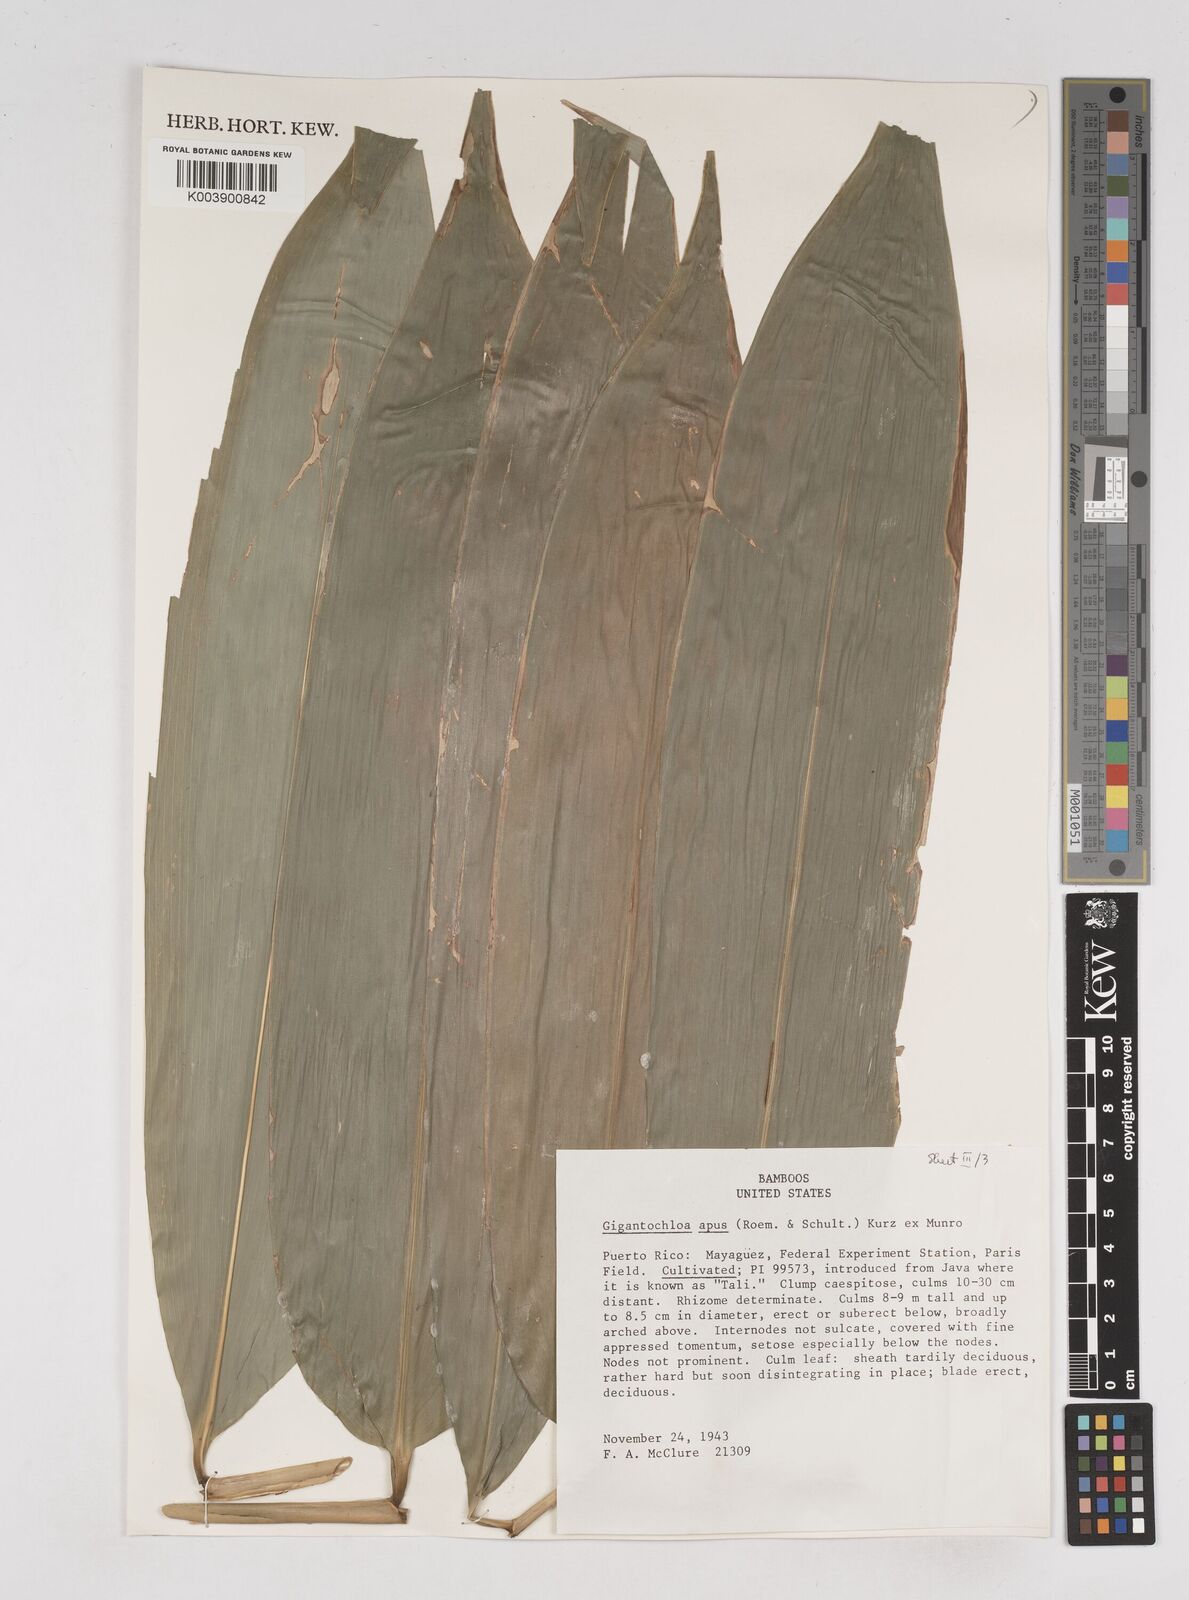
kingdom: Plantae
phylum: Tracheophyta
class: Liliopsida
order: Poales
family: Poaceae
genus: Gigantochloa
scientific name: Gigantochloa apus
